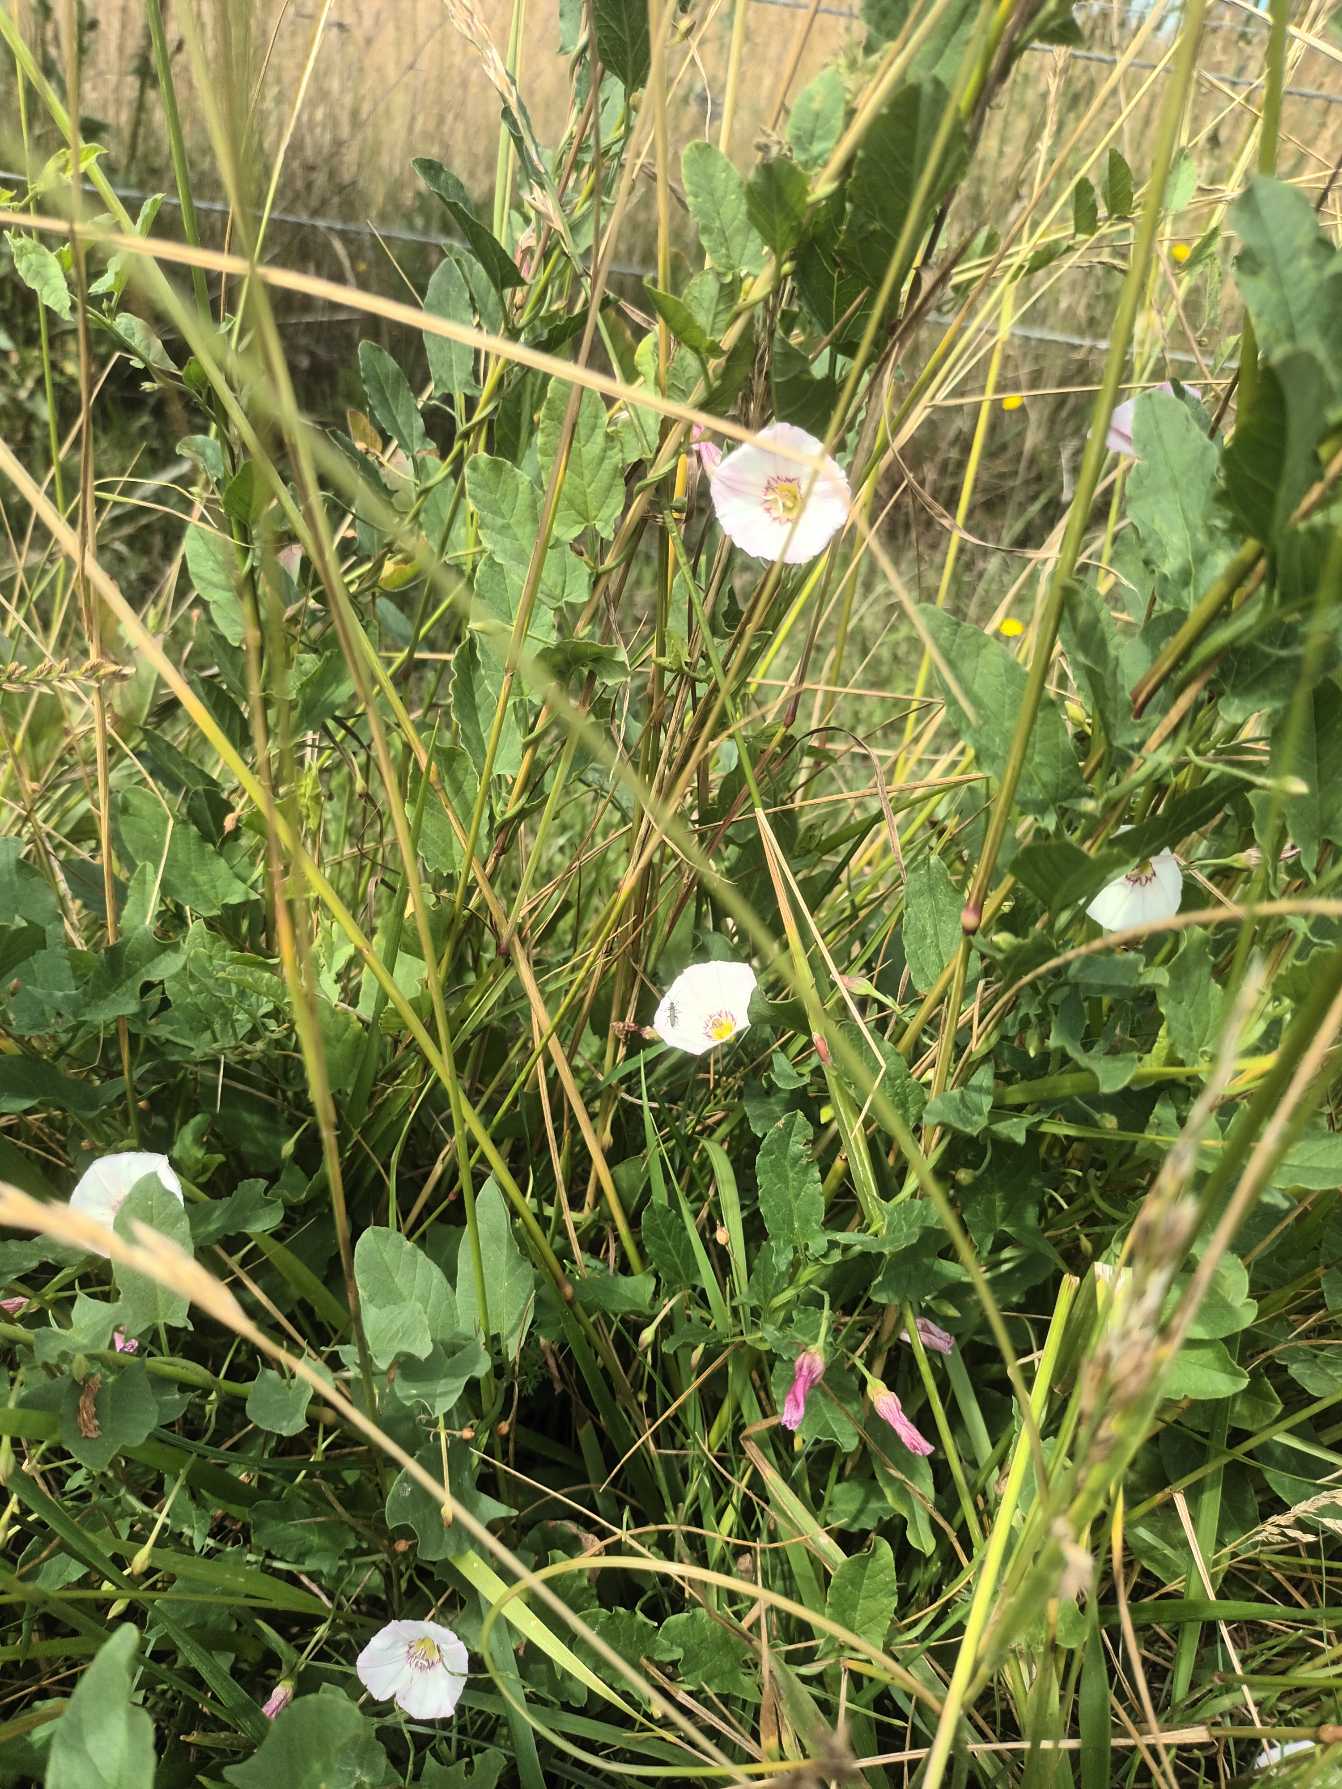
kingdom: Plantae
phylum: Tracheophyta
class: Magnoliopsida
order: Solanales
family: Convolvulaceae
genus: Convolvulus
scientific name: Convolvulus arvensis
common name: Ager-snerle
